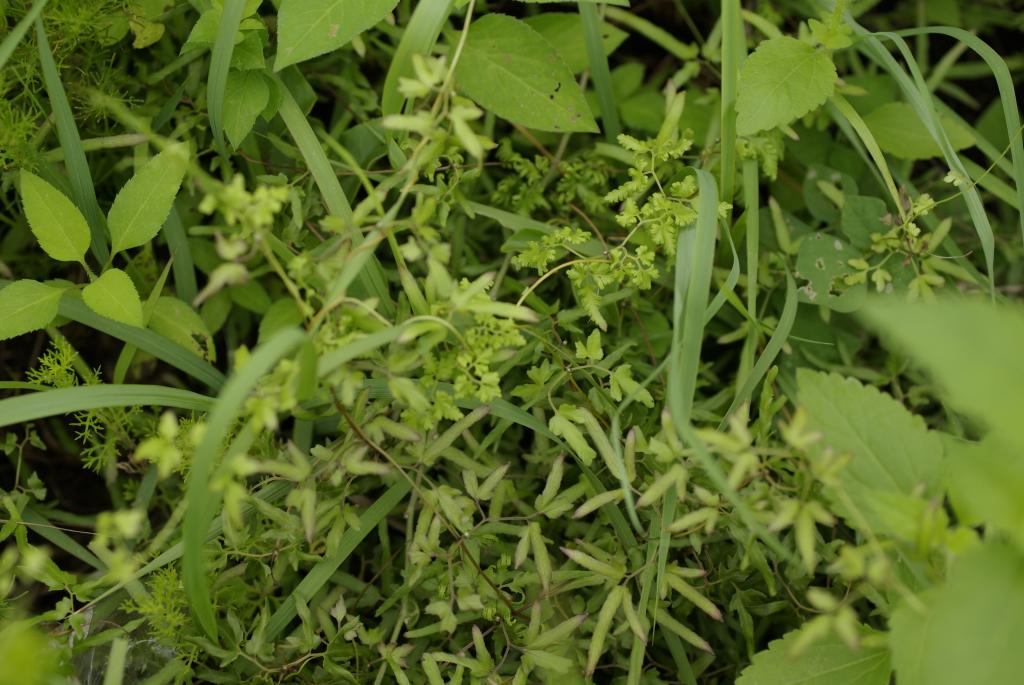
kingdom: Plantae
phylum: Tracheophyta
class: Polypodiopsida
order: Schizaeales
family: Lygodiaceae
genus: Lygodium
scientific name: Lygodium japonicum
